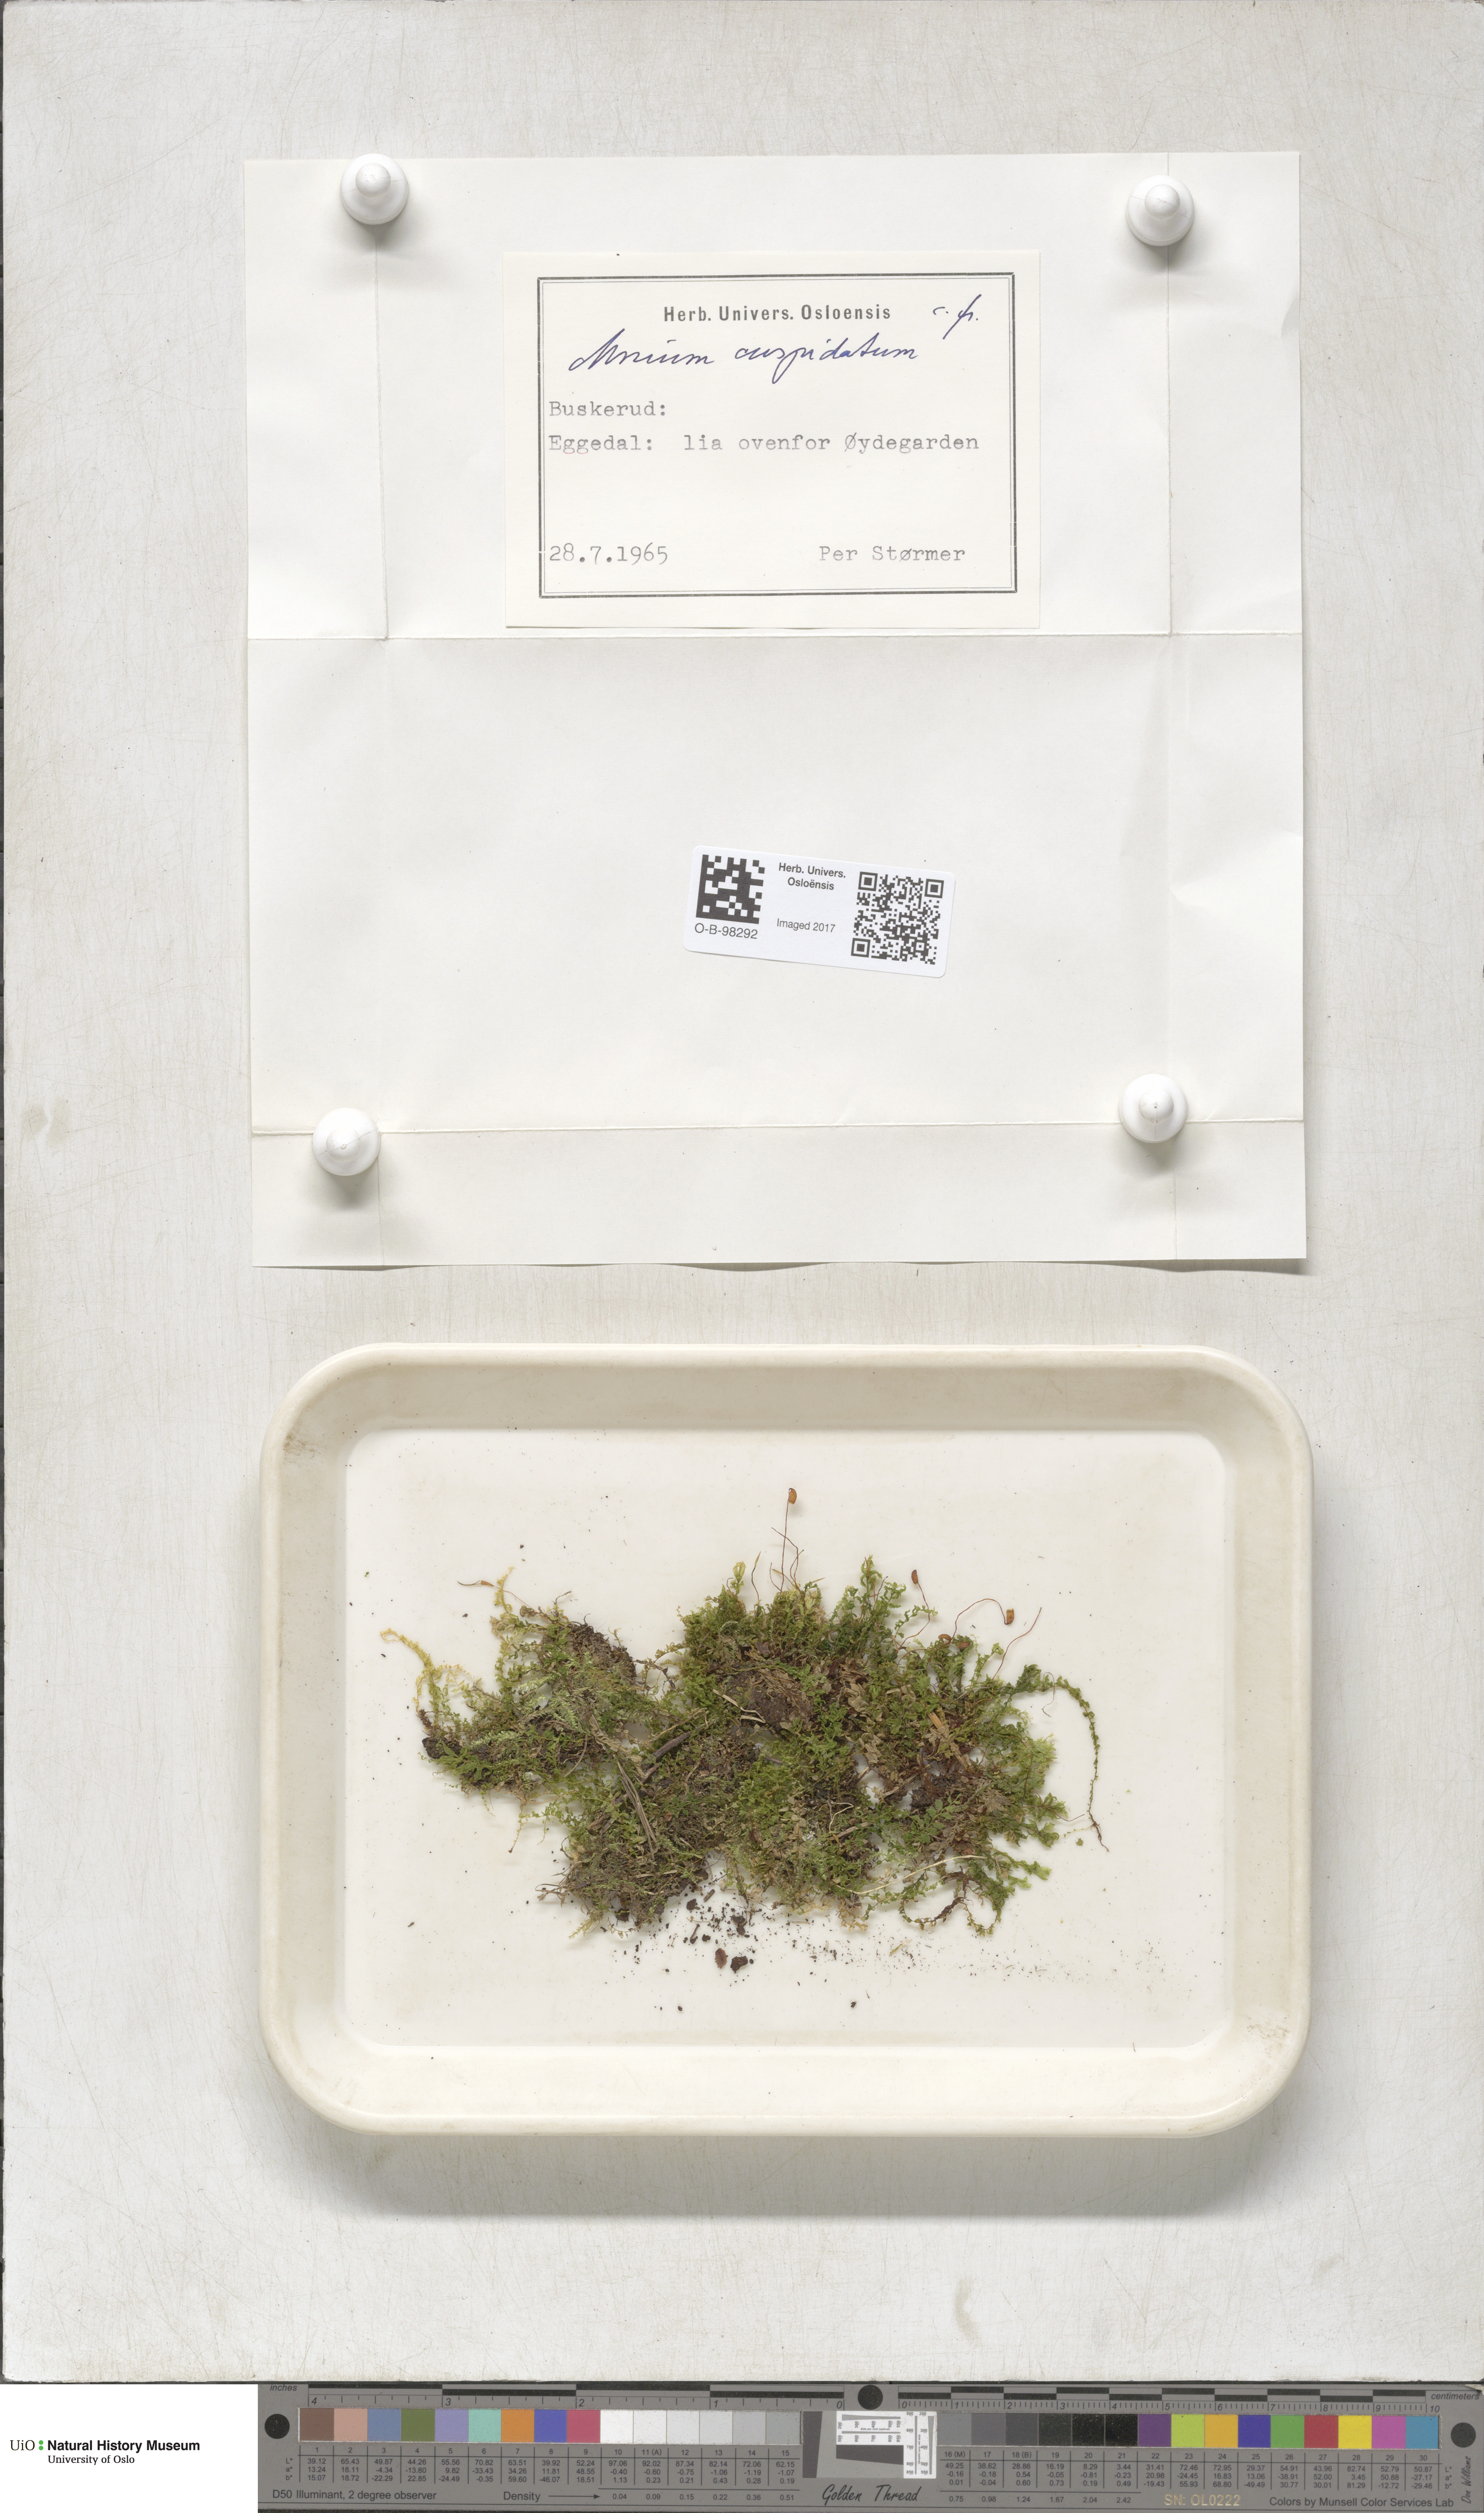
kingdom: Plantae
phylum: Bryophyta
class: Bryopsida
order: Bryales
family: Mniaceae
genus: Plagiomnium
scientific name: Plagiomnium cuspidatum
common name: Woodsy leafy moss
